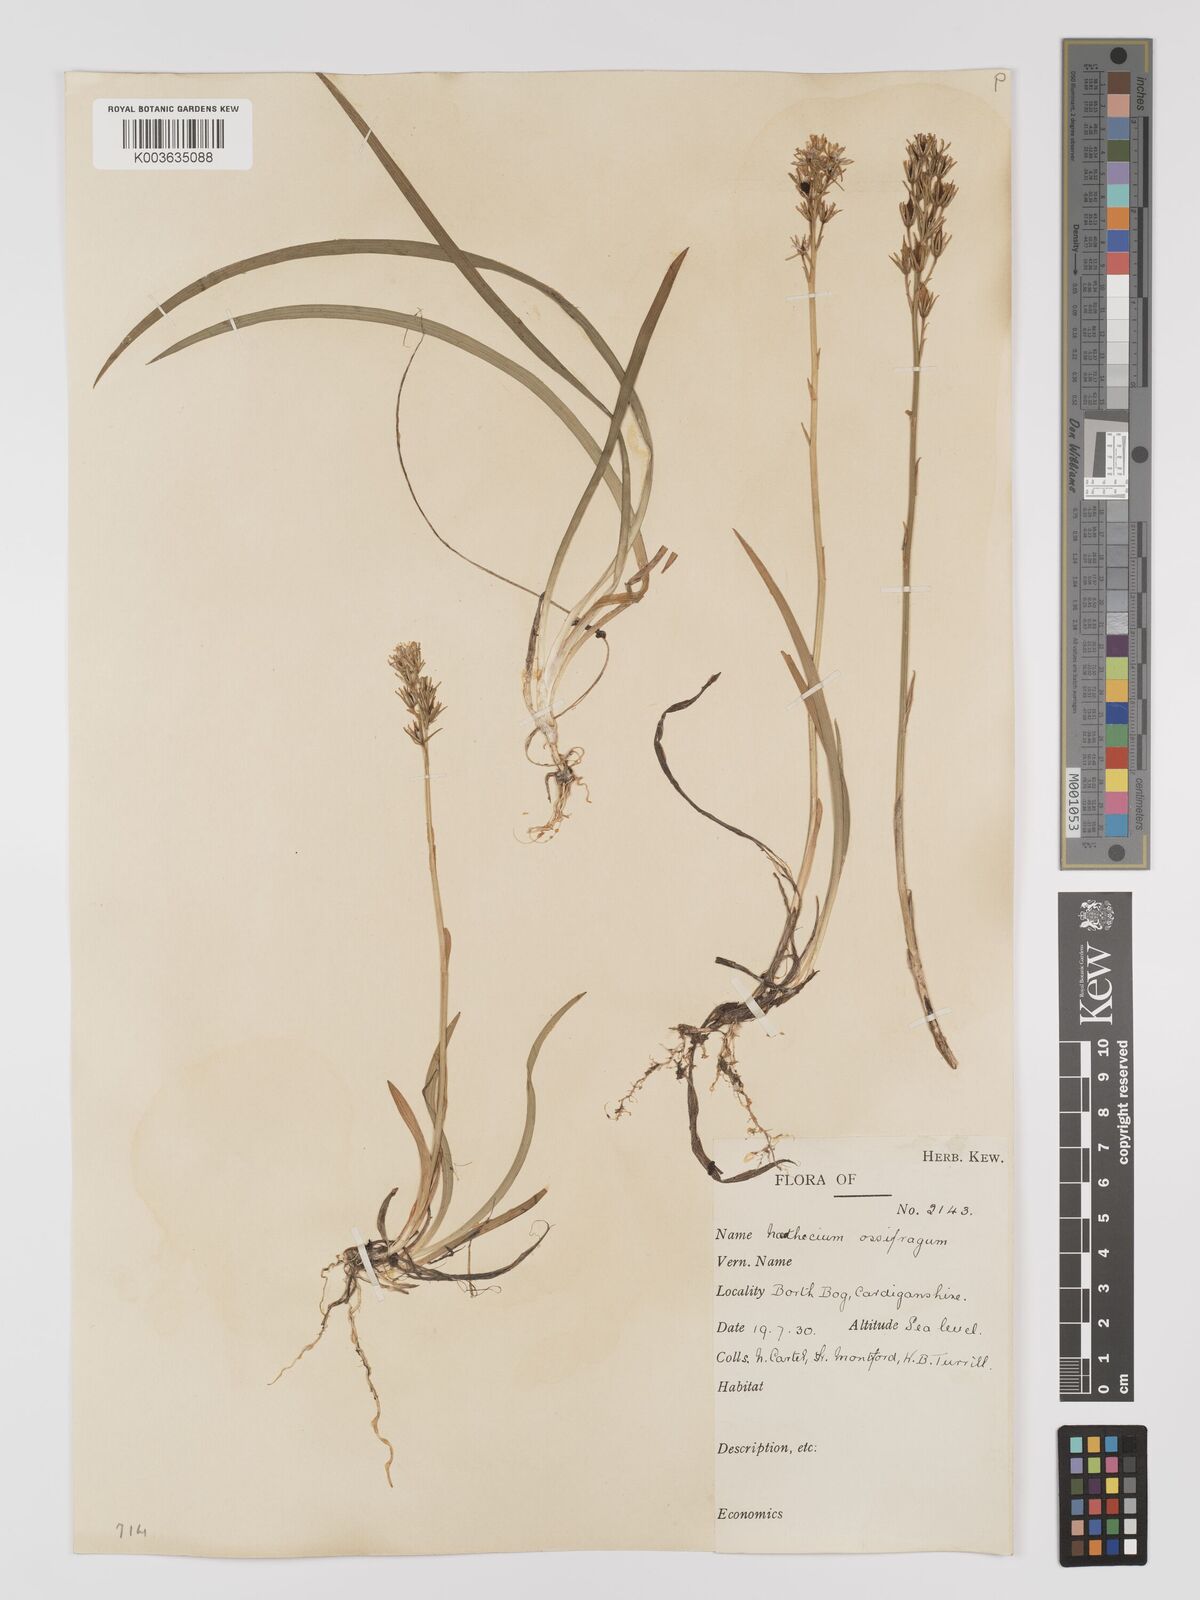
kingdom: Plantae
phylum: Tracheophyta
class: Liliopsida
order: Dioscoreales
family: Nartheciaceae
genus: Narthecium
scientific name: Narthecium
